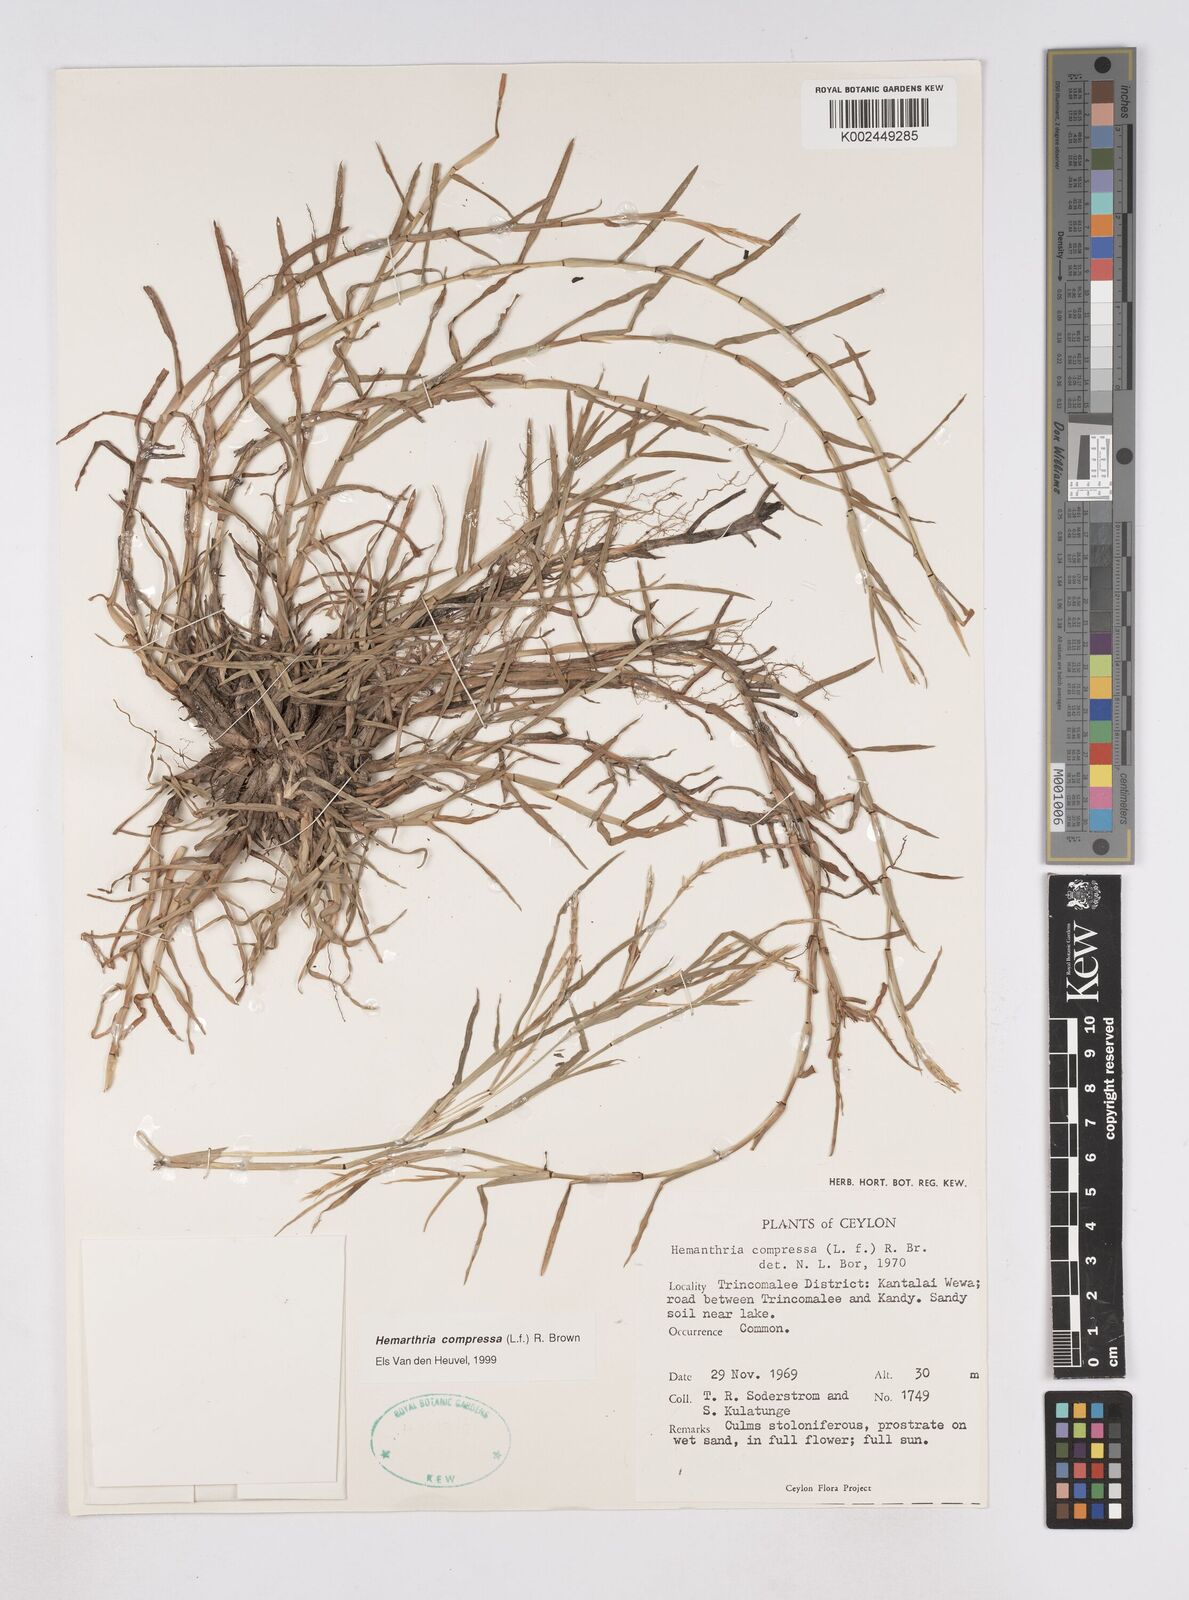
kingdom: Plantae
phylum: Tracheophyta
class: Liliopsida
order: Poales
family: Poaceae
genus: Hemarthria
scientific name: Hemarthria compressa
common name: Whip grass
